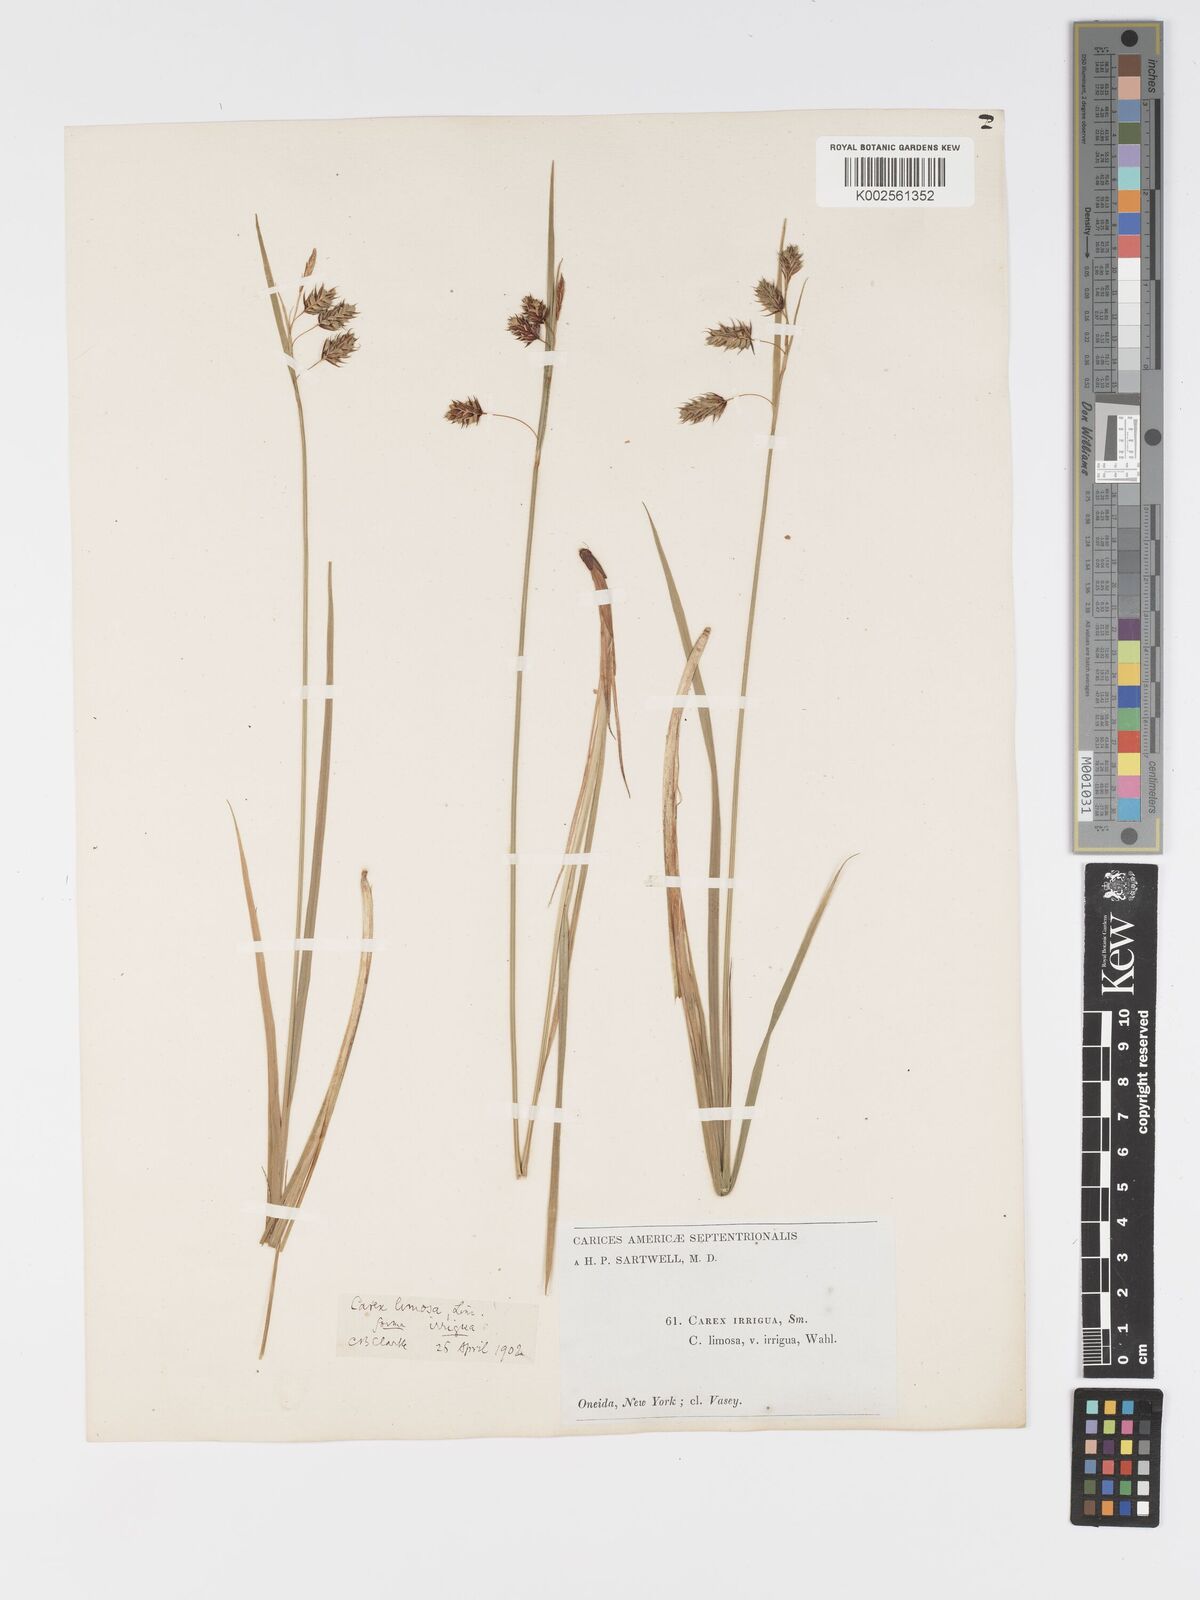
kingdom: Plantae
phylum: Tracheophyta
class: Liliopsida
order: Poales
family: Cyperaceae
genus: Carex
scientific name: Carex magellanica
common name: Bog sedge
